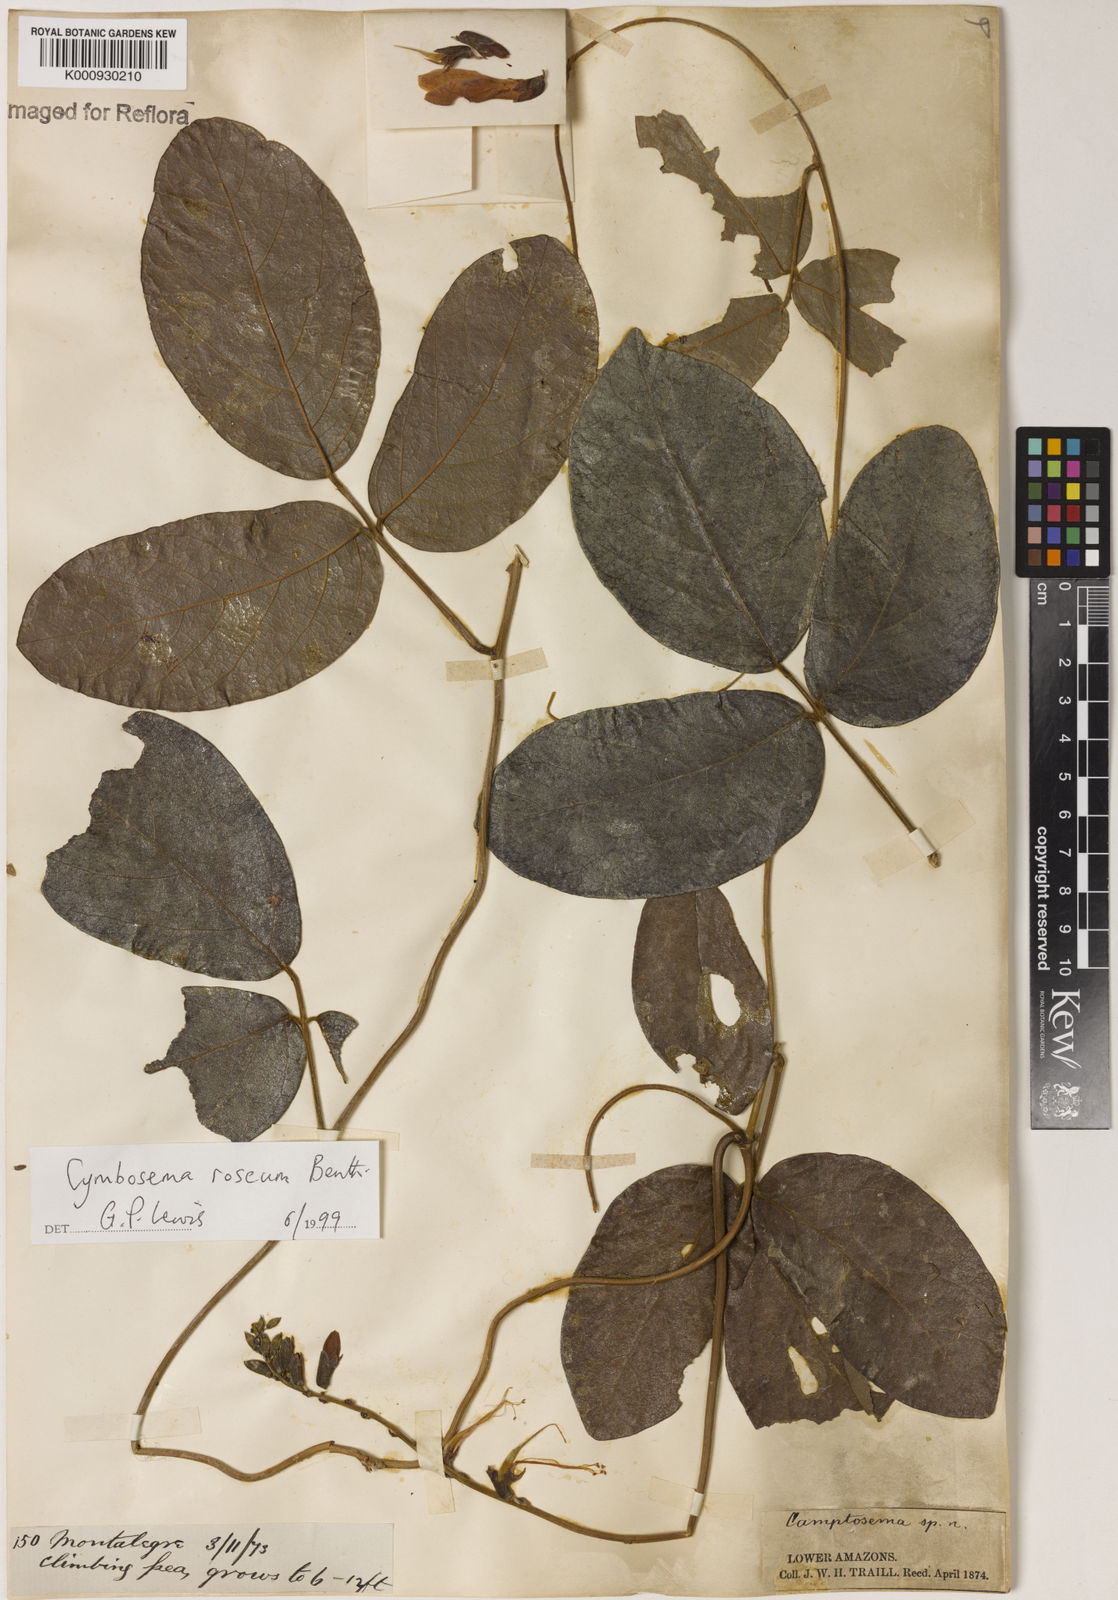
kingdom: Plantae
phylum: Tracheophyta
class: Magnoliopsida
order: Fabales
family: Fabaceae
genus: Cymbosema
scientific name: Cymbosema roseum
